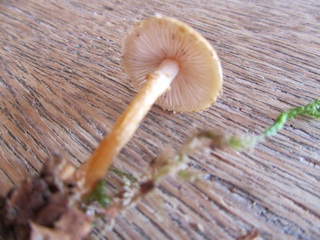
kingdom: Fungi
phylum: Basidiomycota
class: Agaricomycetes
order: Agaricales
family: Tricholomataceae
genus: Cystoderma
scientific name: Cystoderma amianthinum
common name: okkergul grynhat
